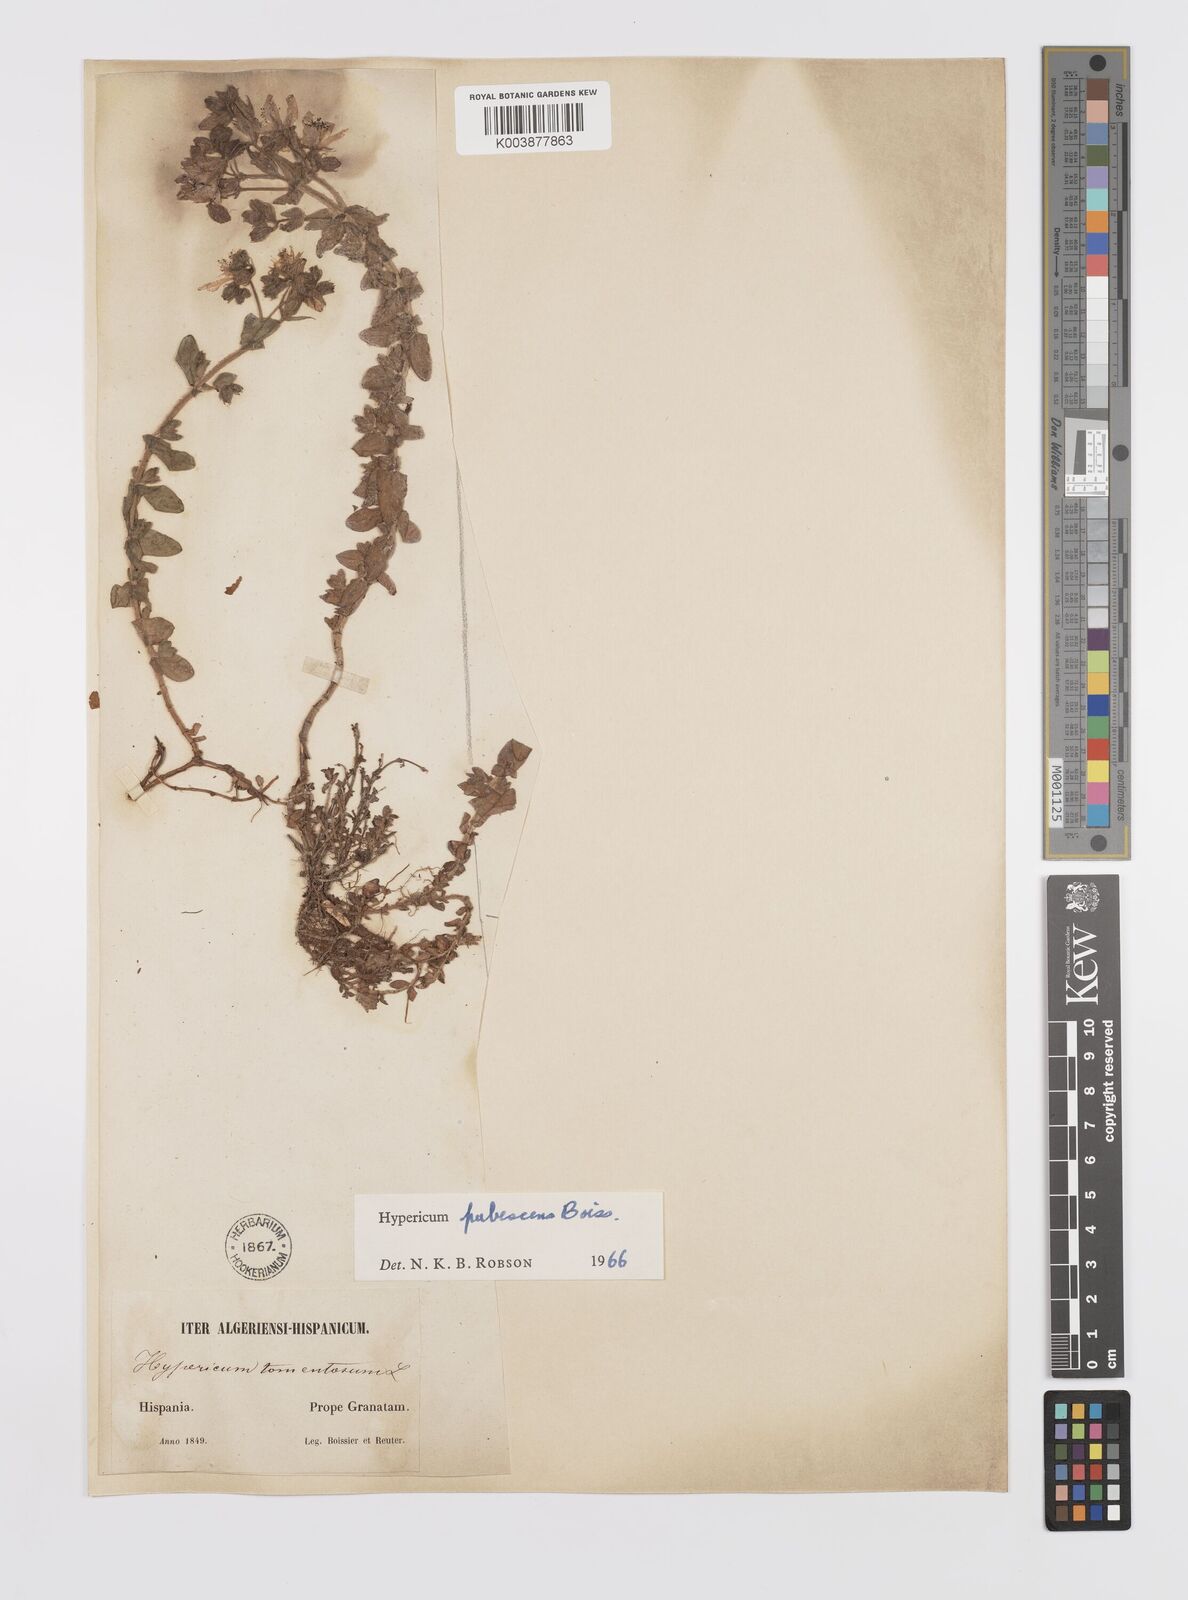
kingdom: Plantae
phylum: Tracheophyta
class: Magnoliopsida
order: Malpighiales
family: Hypericaceae
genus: Hypericum
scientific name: Hypericum pubescens
